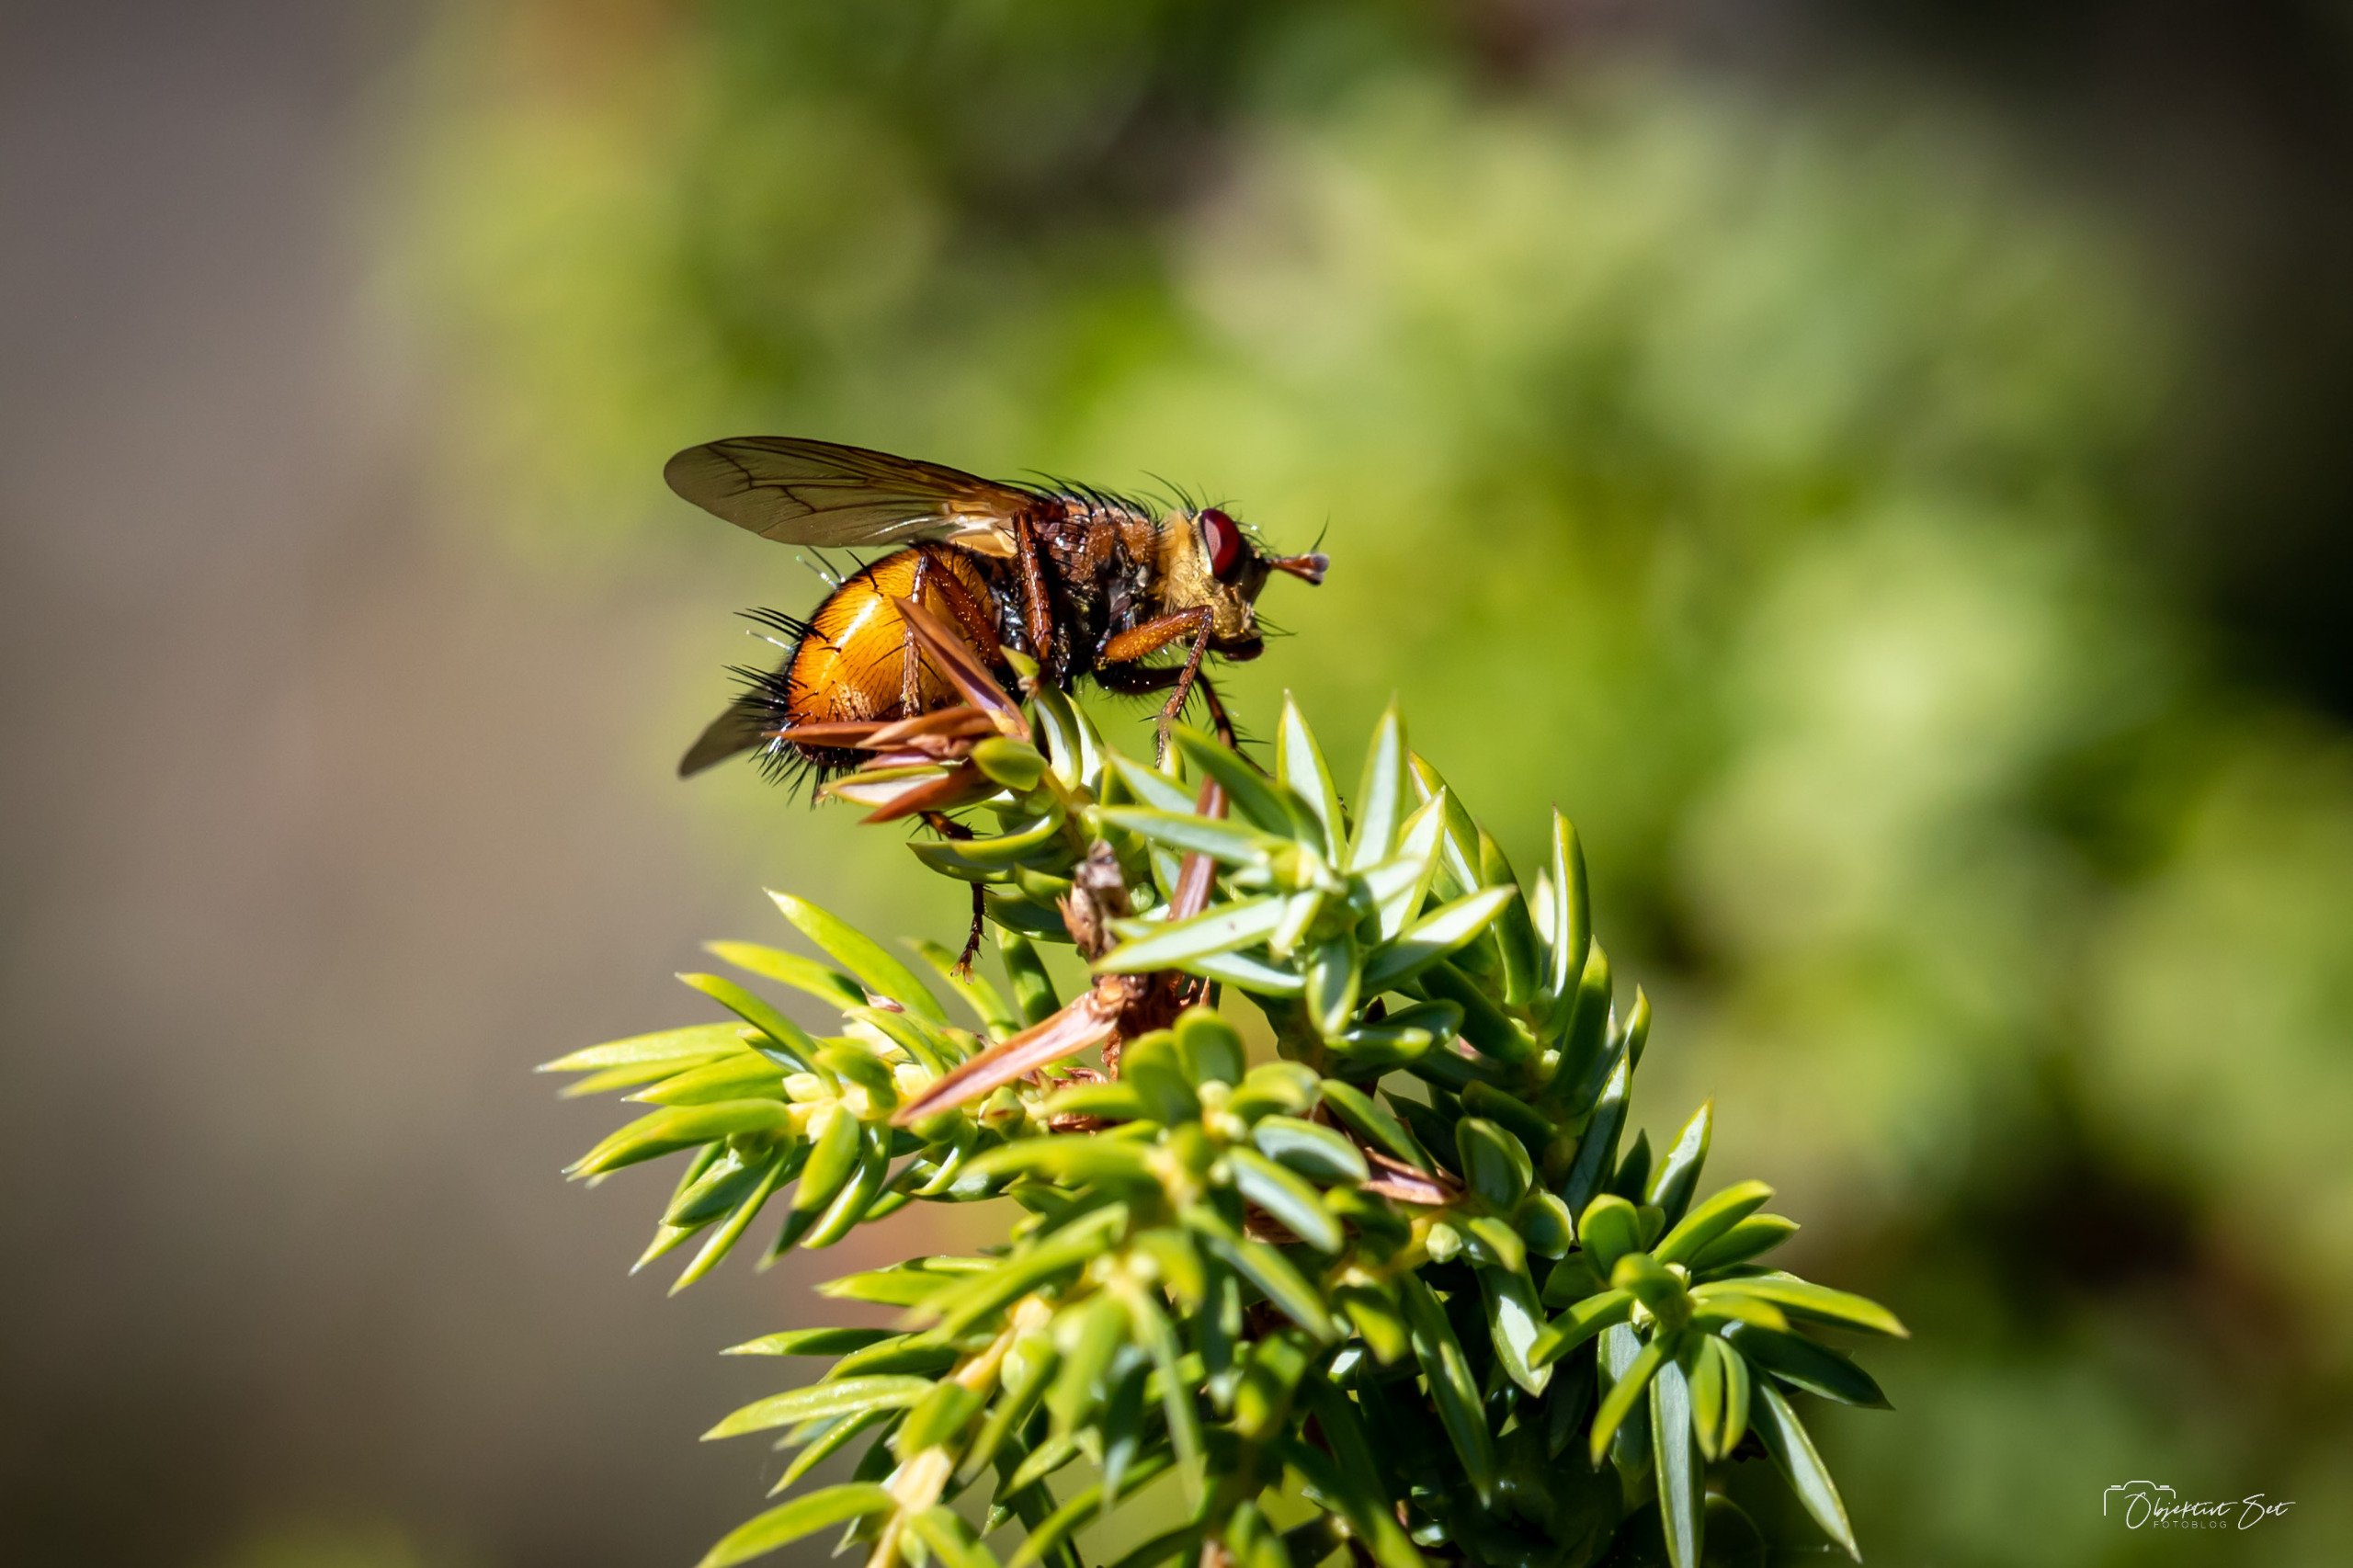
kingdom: Animalia
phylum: Arthropoda
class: Insecta
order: Diptera
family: Tachinidae
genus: Tachina
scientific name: Tachina fera
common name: Mellemfluen oskar
